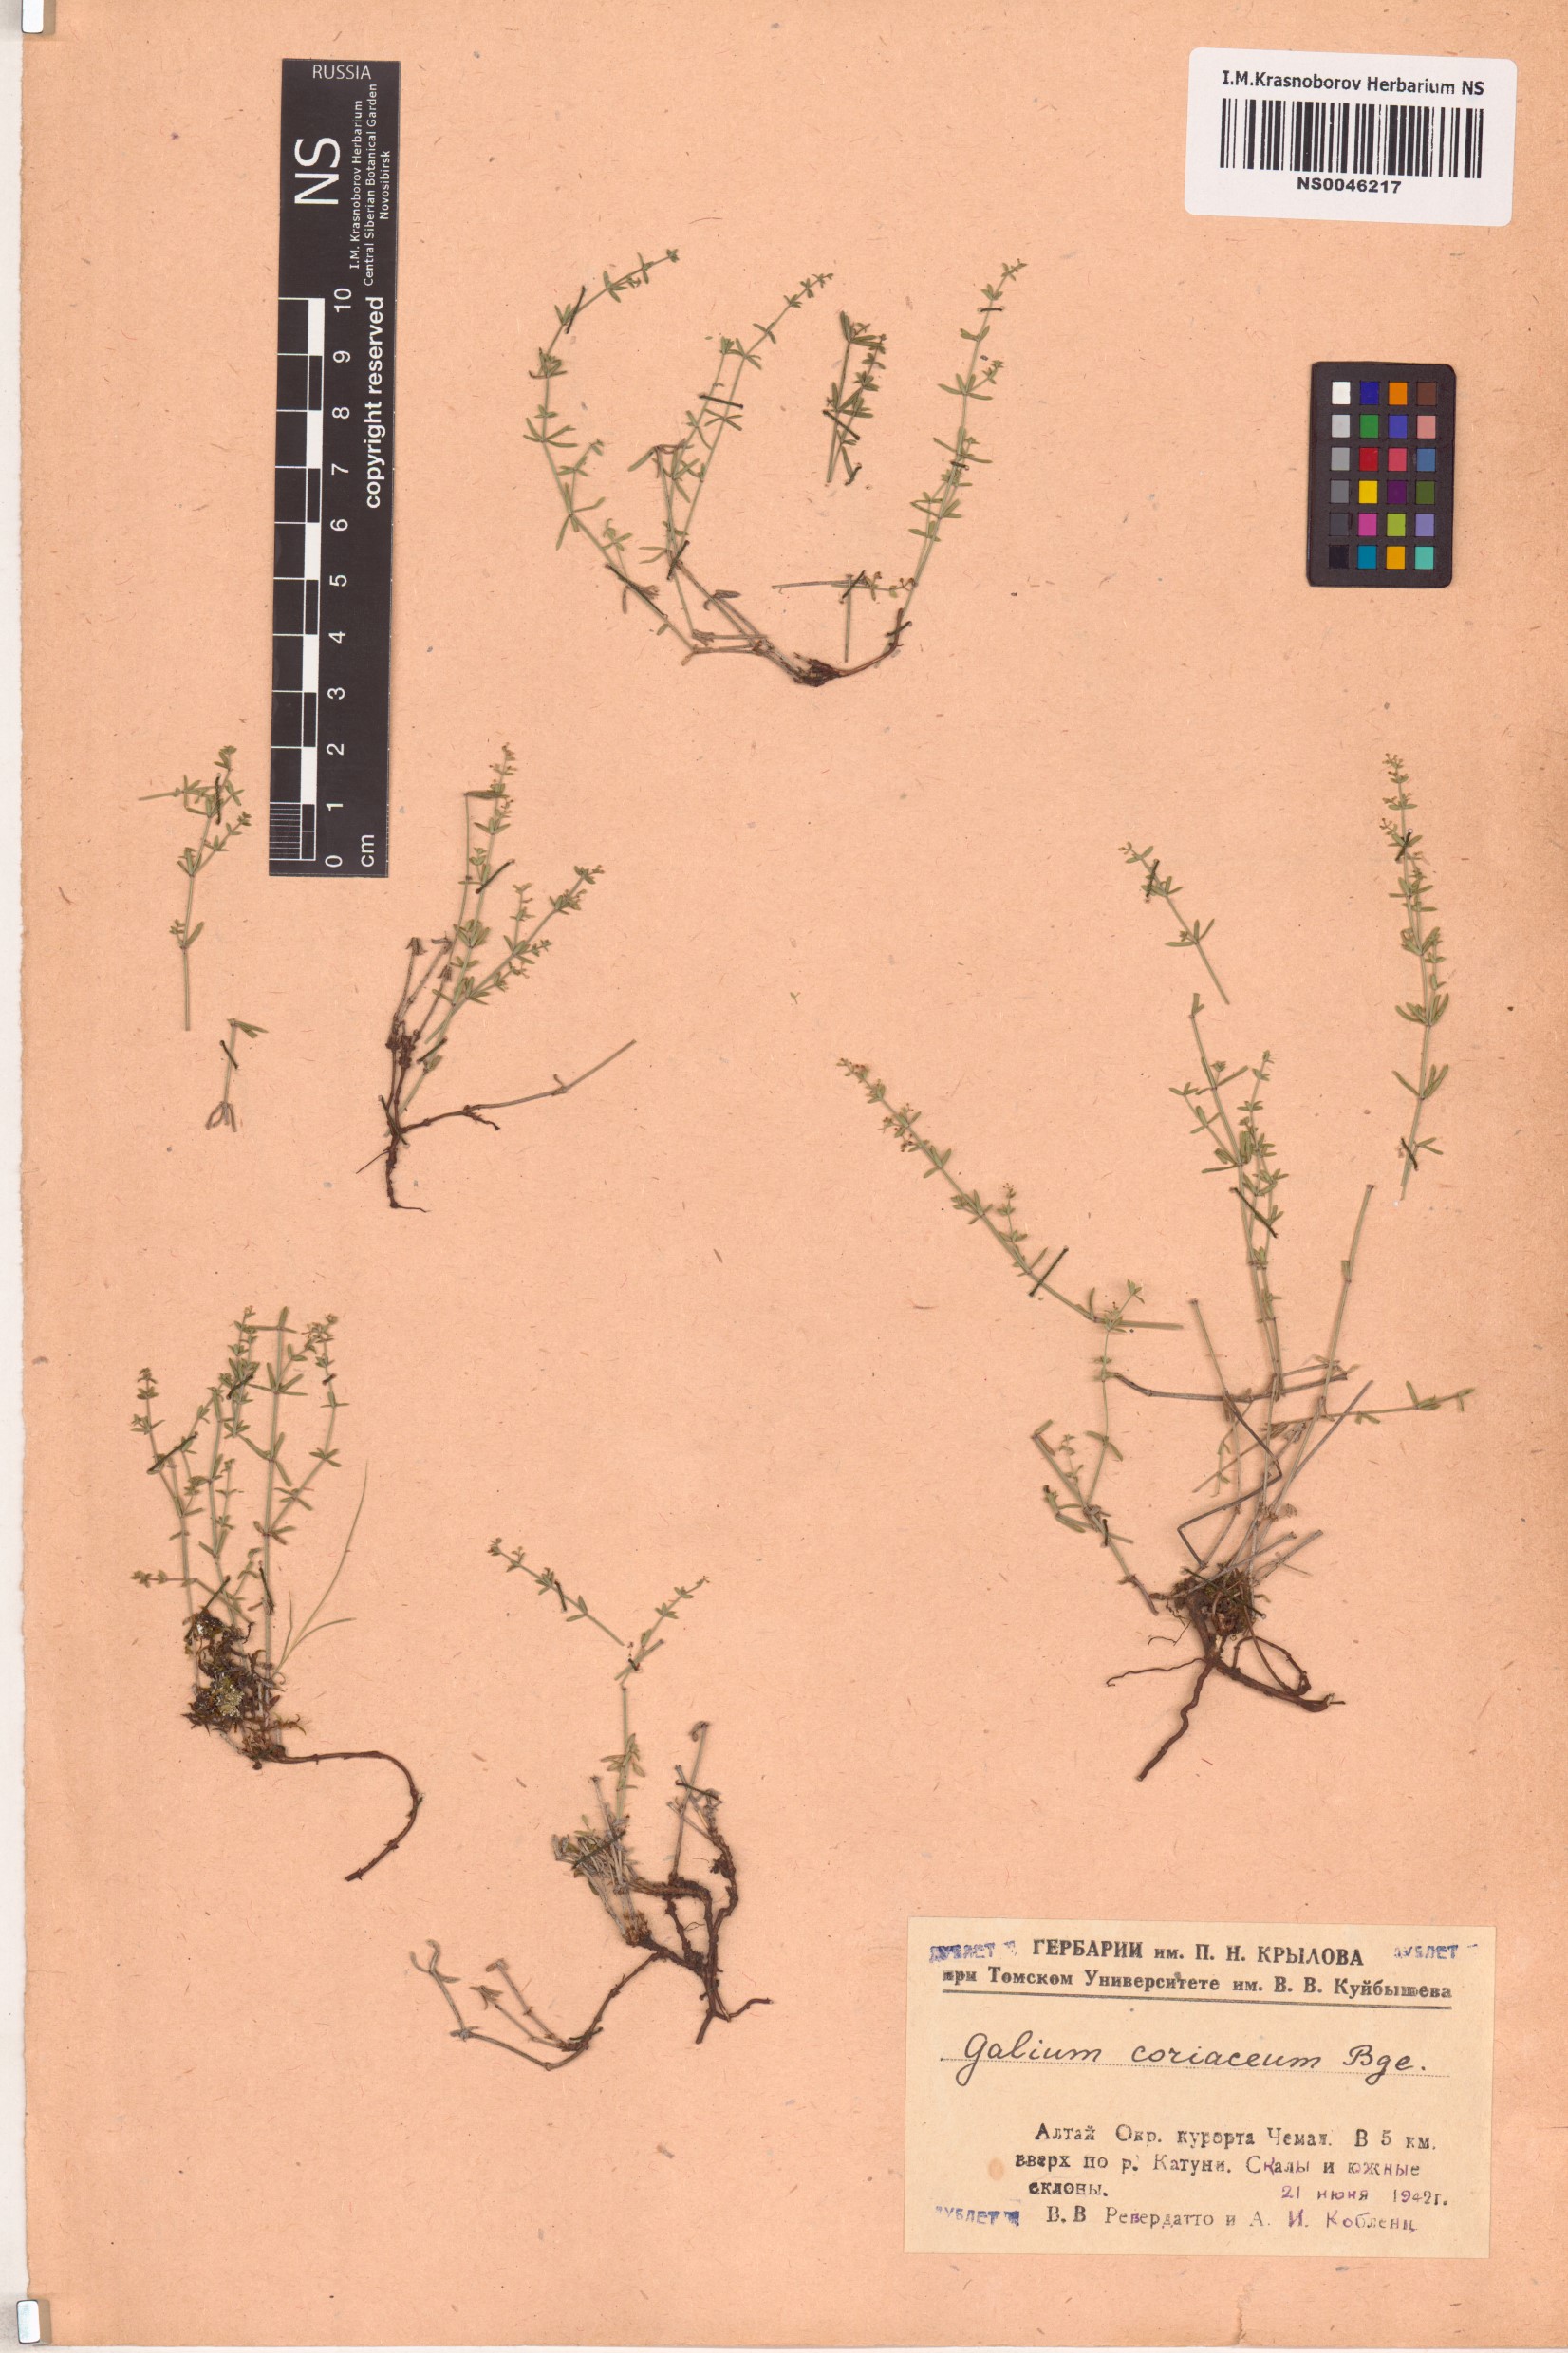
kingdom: Plantae
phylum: Tracheophyta
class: Magnoliopsida
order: Gentianales
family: Rubiaceae
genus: Galium
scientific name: Galium coriaceum
